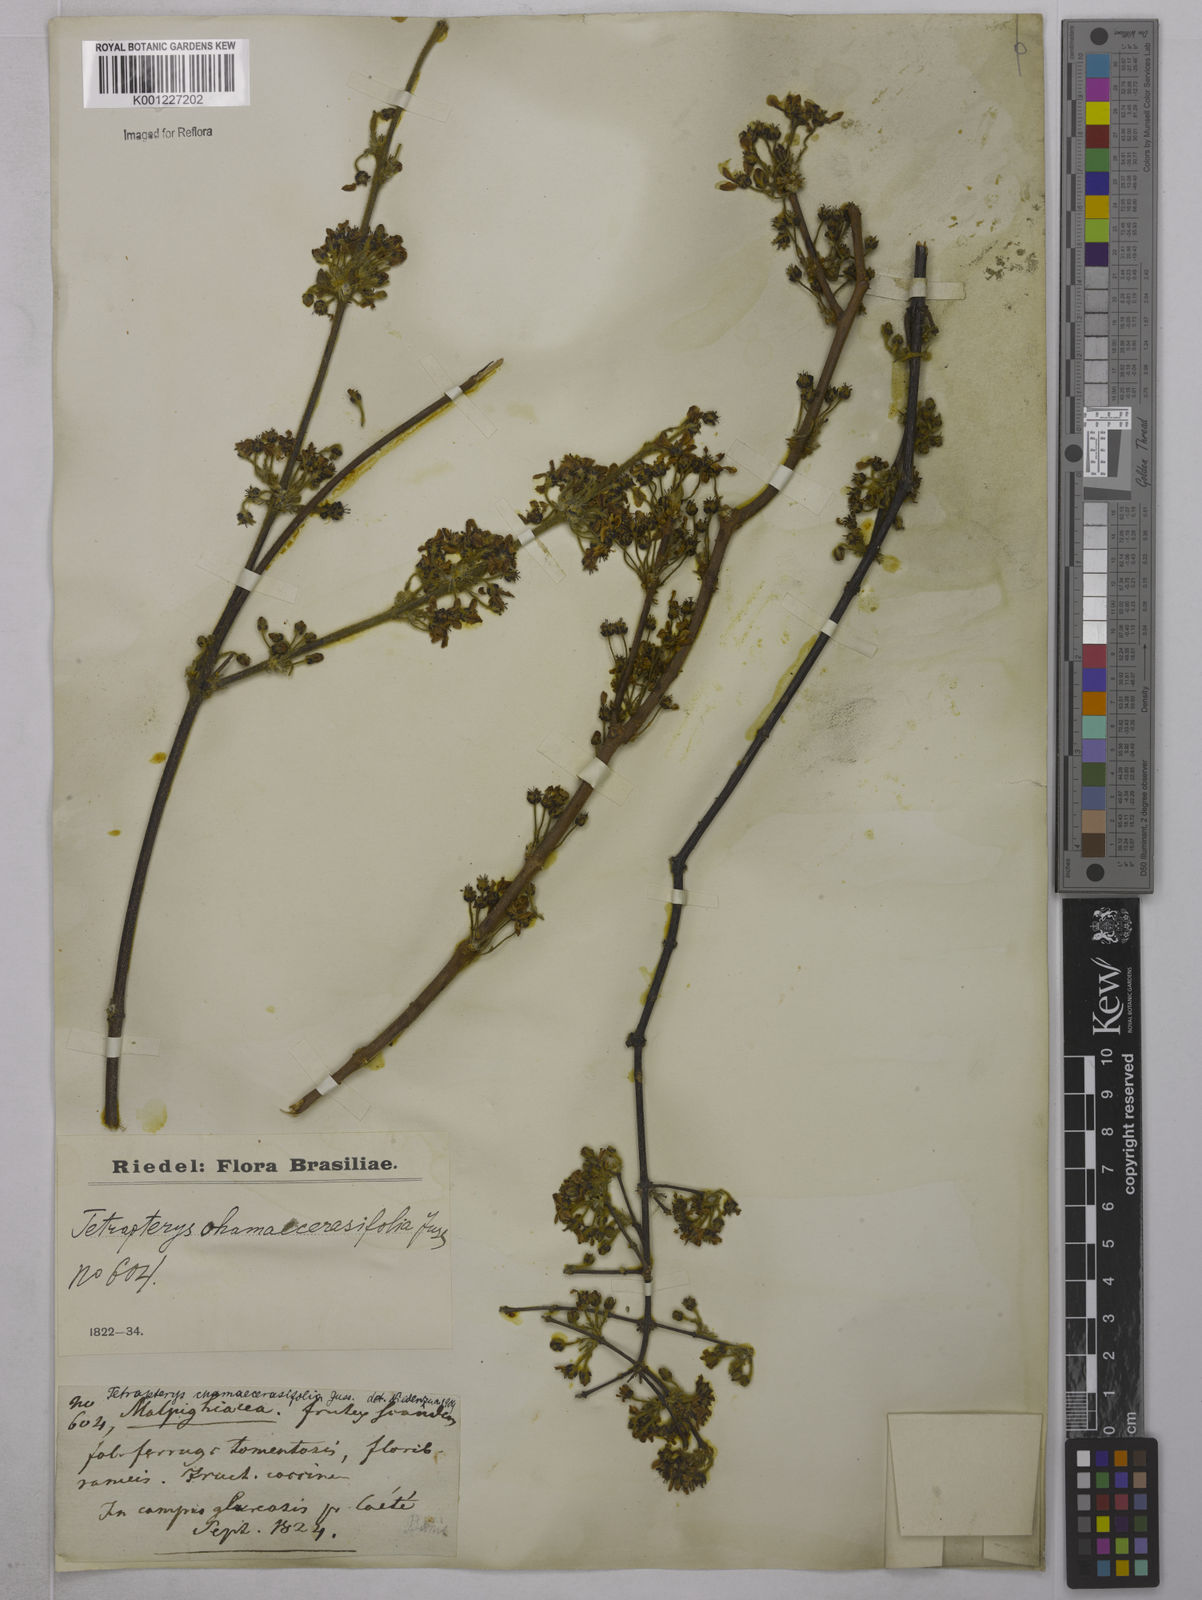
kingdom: Plantae
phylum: Tracheophyta
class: Magnoliopsida
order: Malpighiales
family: Malpighiaceae
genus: Glicophyllum
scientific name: Glicophyllum chamaecerasifolium
